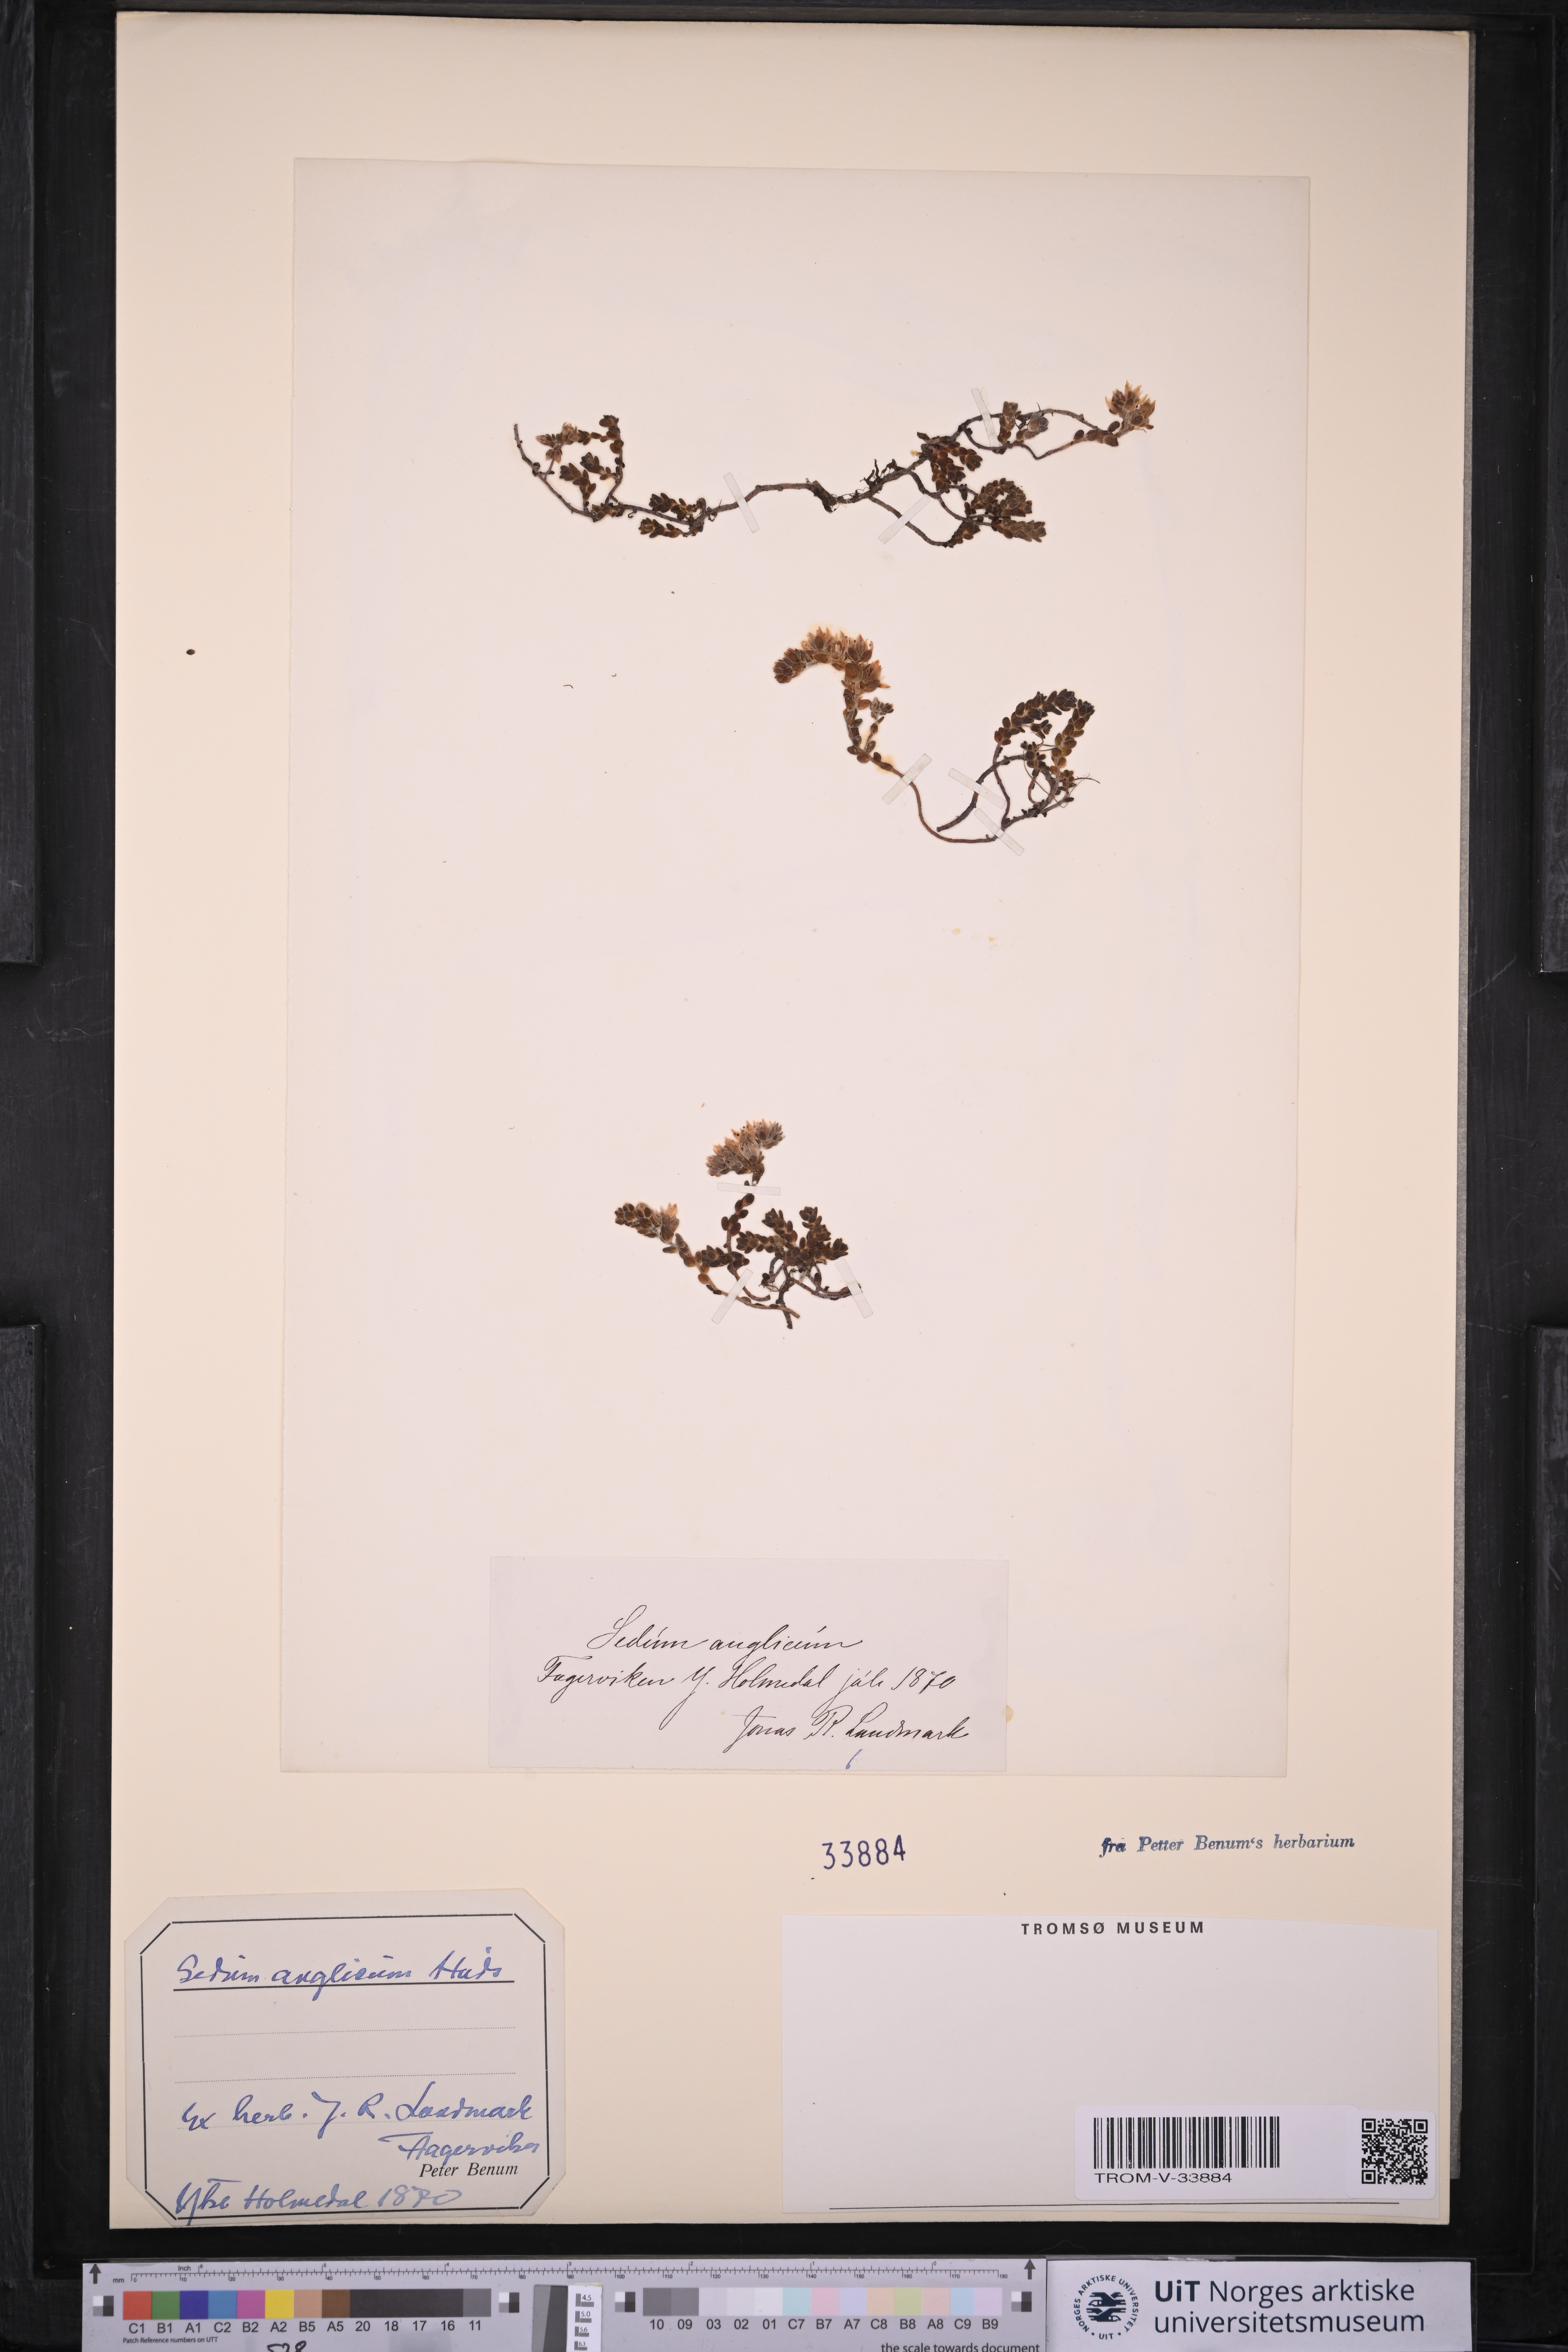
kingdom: Plantae
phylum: Tracheophyta
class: Magnoliopsida
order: Saxifragales
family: Crassulaceae
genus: Sedum
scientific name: Sedum anglicum
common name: English stonecrop
